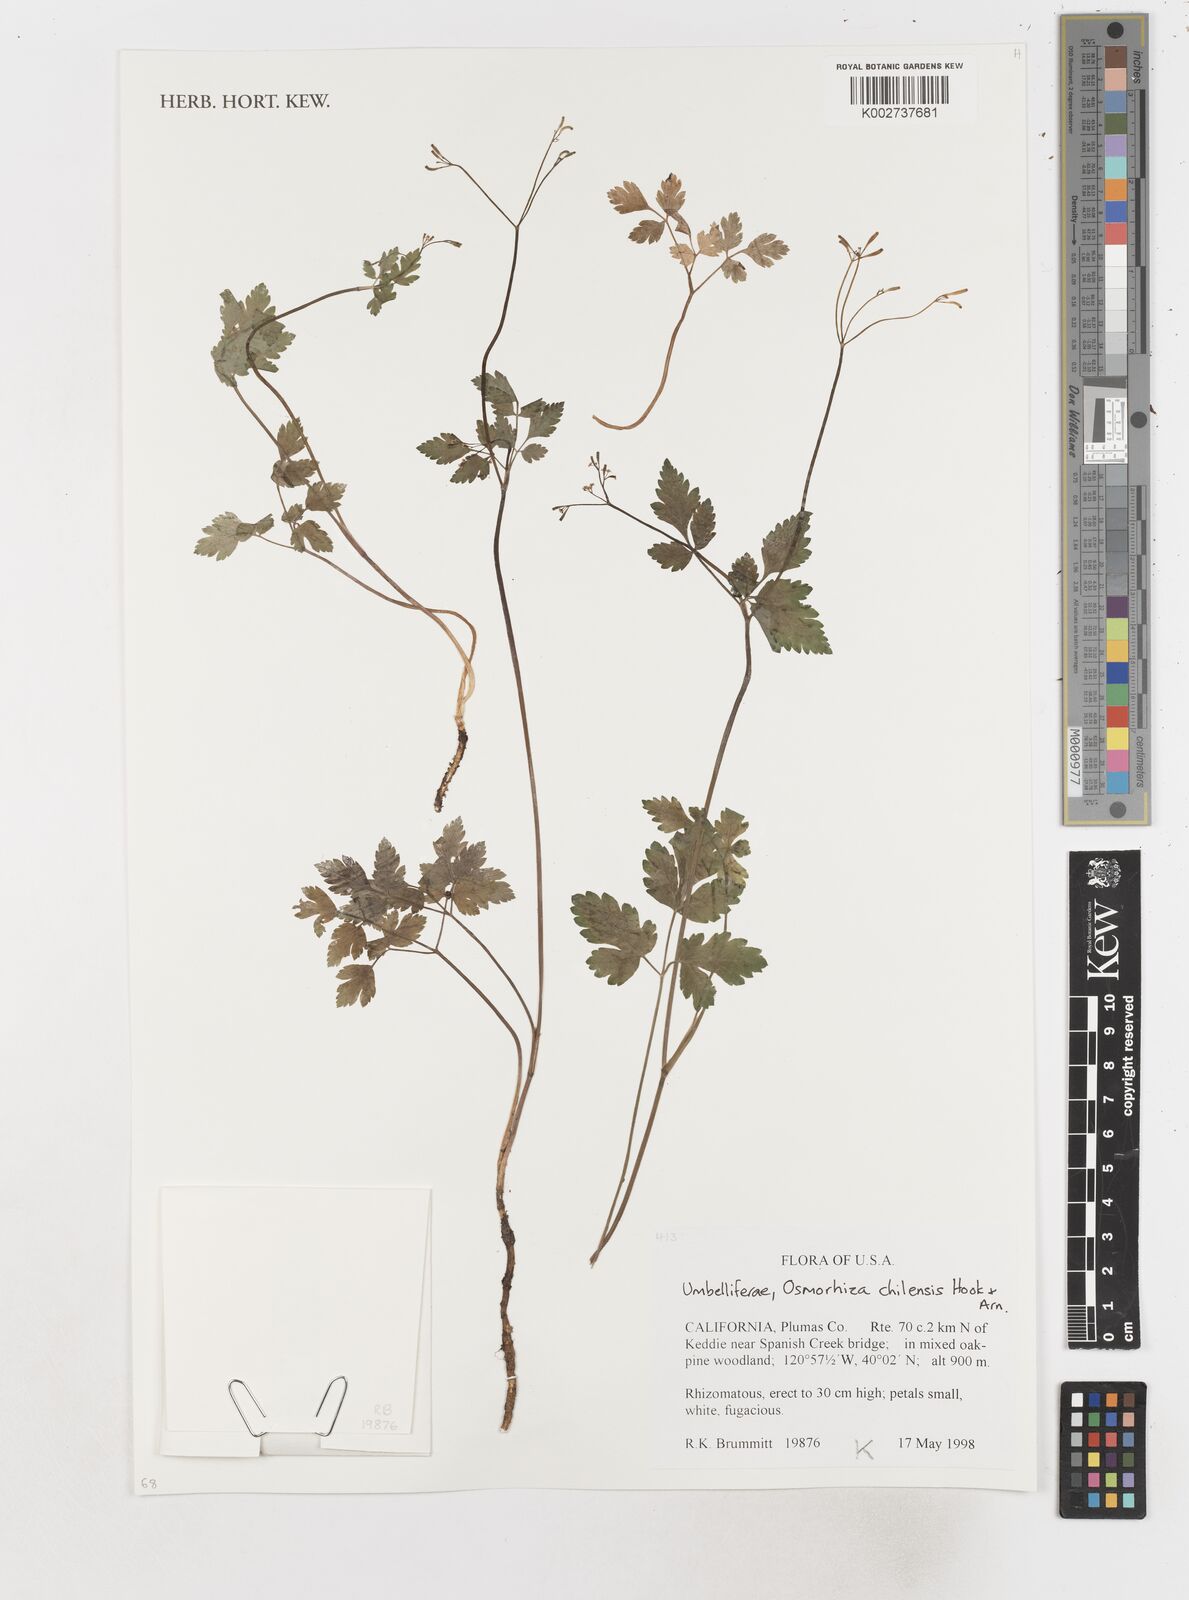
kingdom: Plantae
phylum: Tracheophyta
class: Magnoliopsida
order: Apiales
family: Apiaceae
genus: Osmorhiza
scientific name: Osmorhiza berteroi
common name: Mountain sweet cicely
